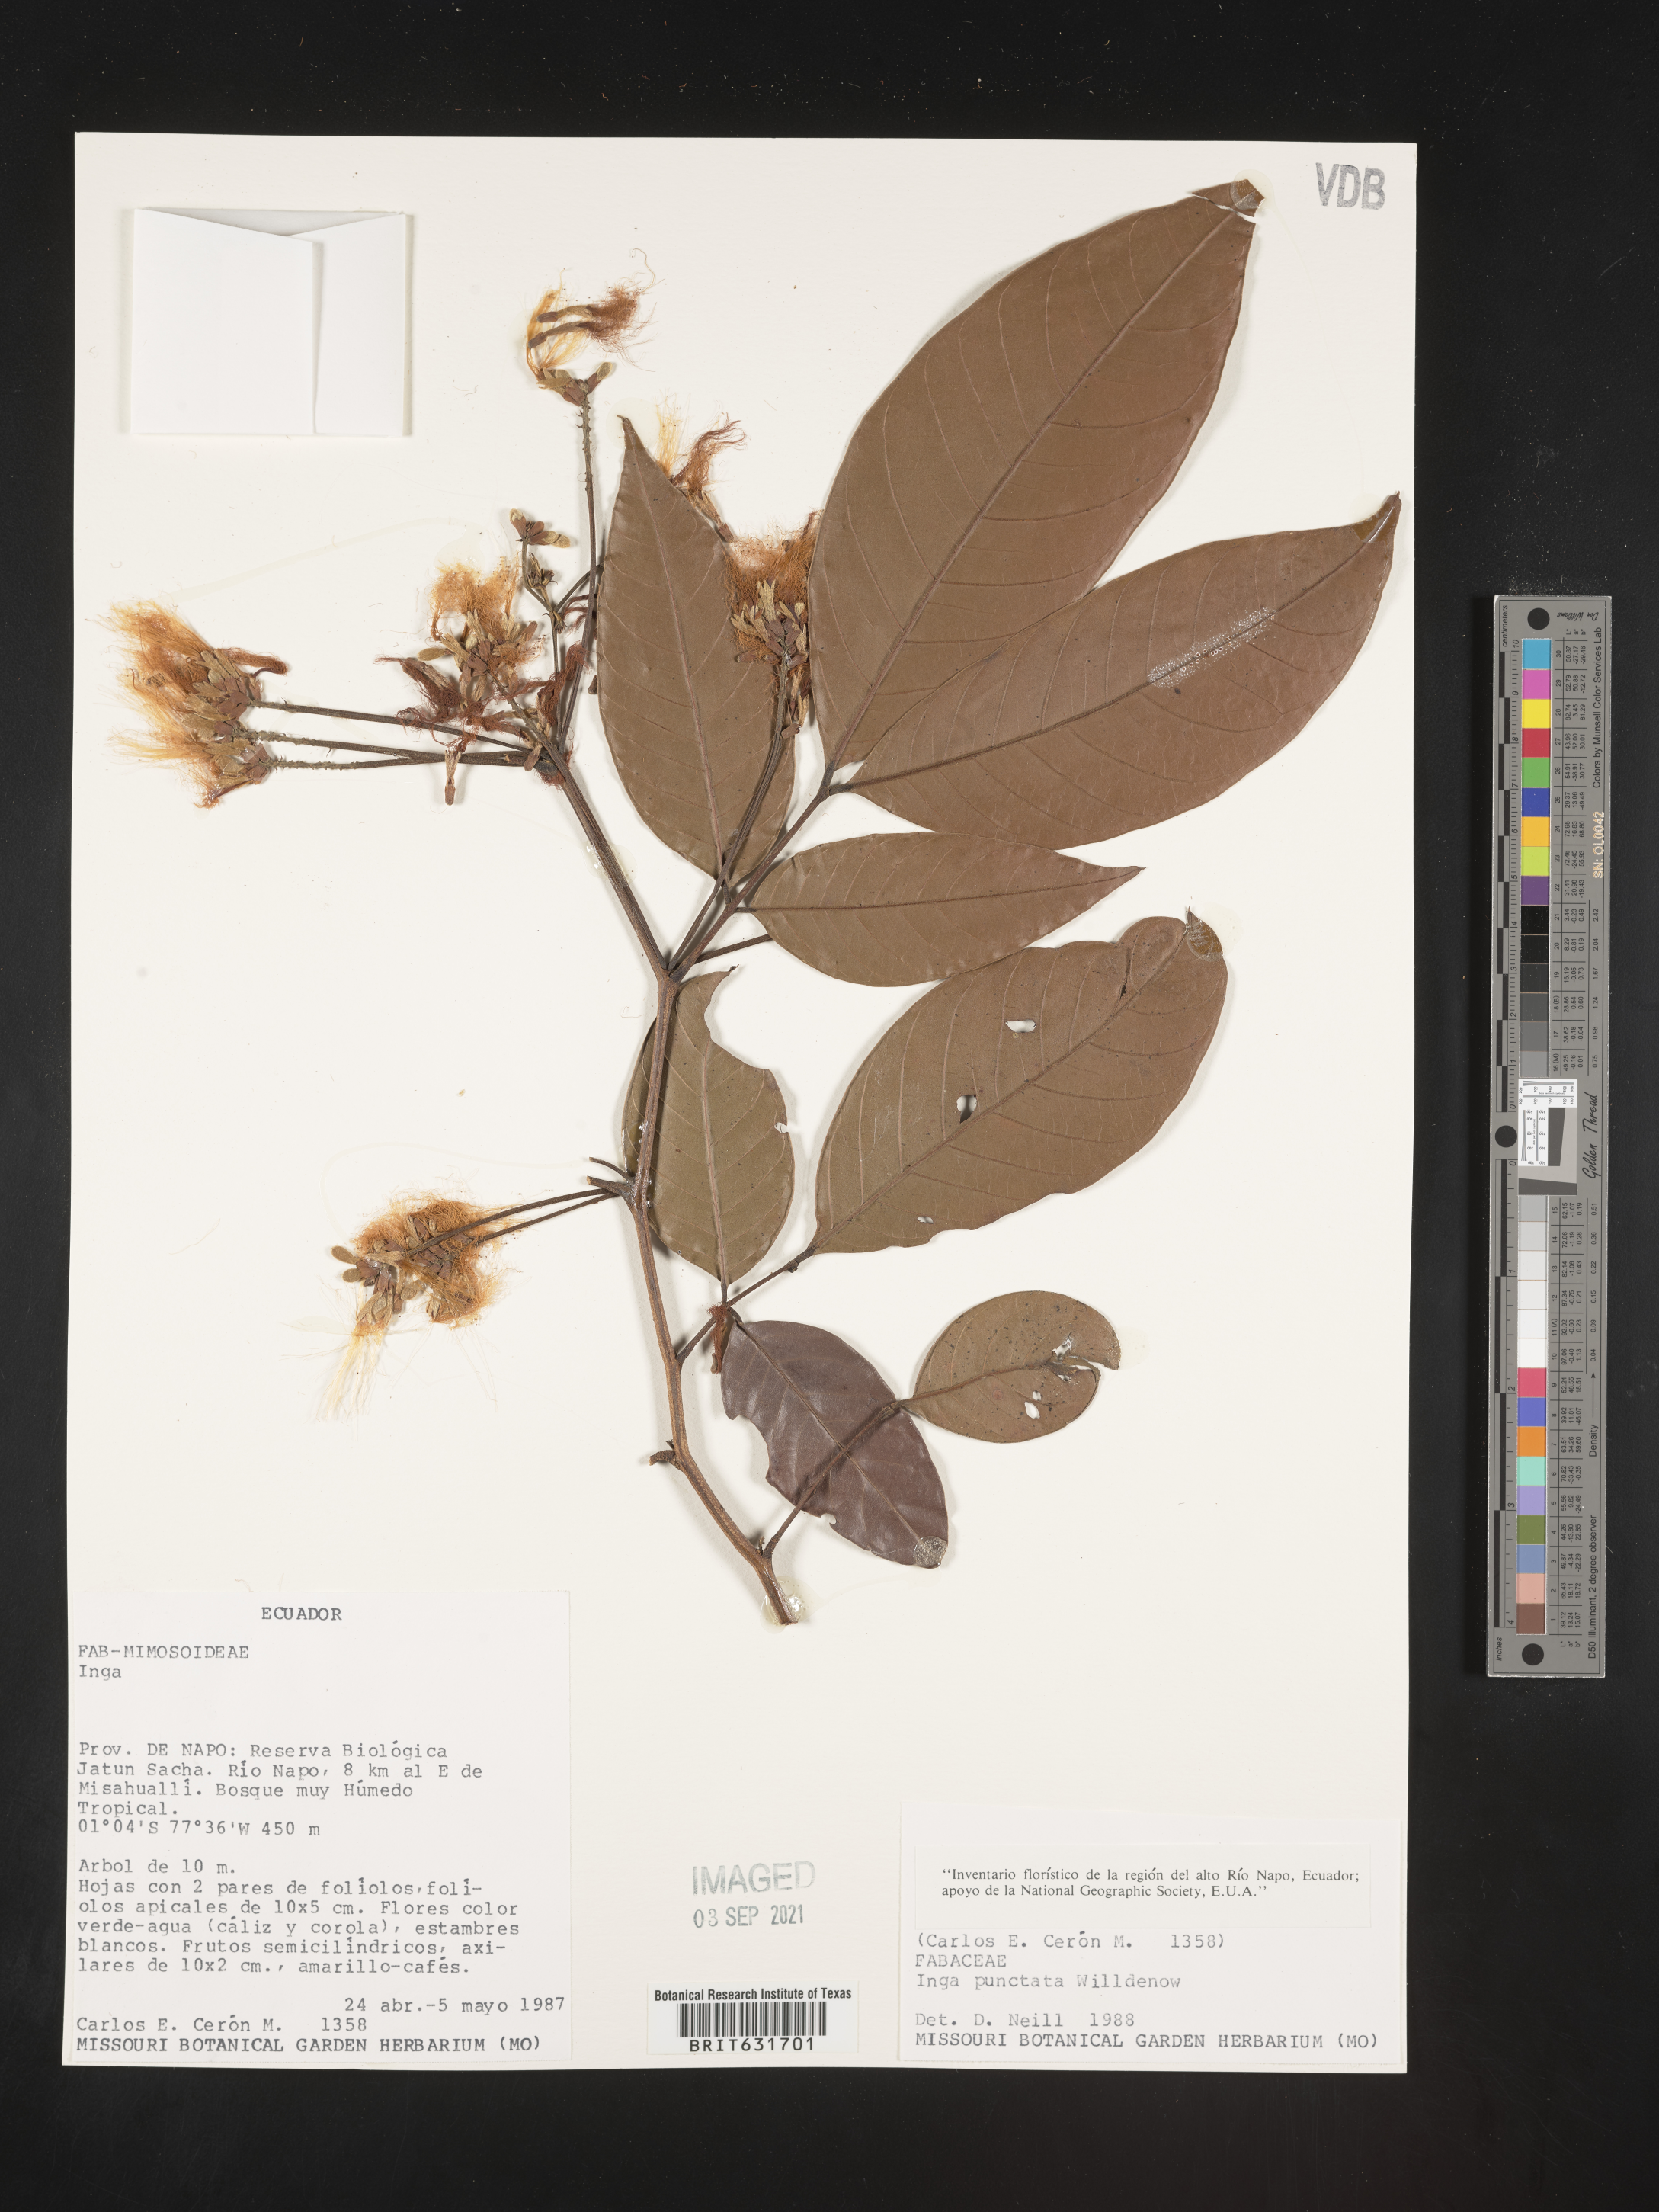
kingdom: Plantae
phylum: Tracheophyta
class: Magnoliopsida
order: Fabales
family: Fabaceae
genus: Inga
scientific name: Inga
